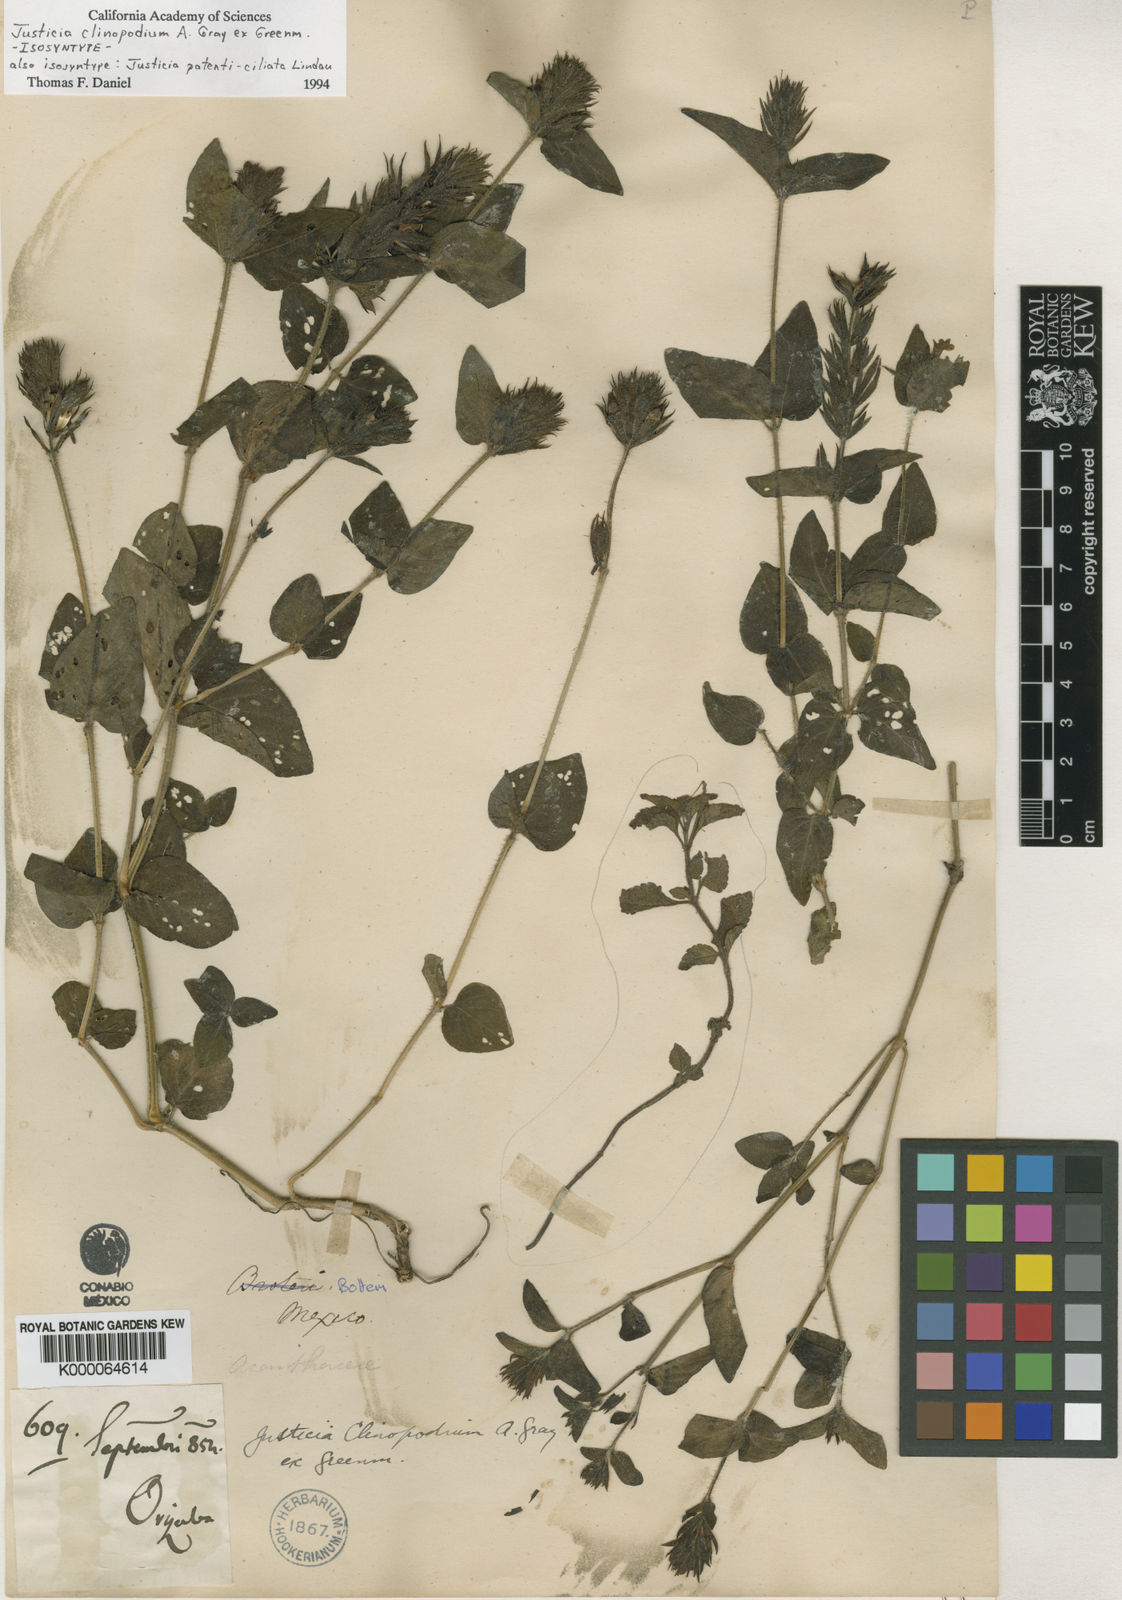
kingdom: Plantae
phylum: Tracheophyta
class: Magnoliopsida
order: Lamiales
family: Acanthaceae
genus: Justicia
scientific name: Justicia clinopodium
